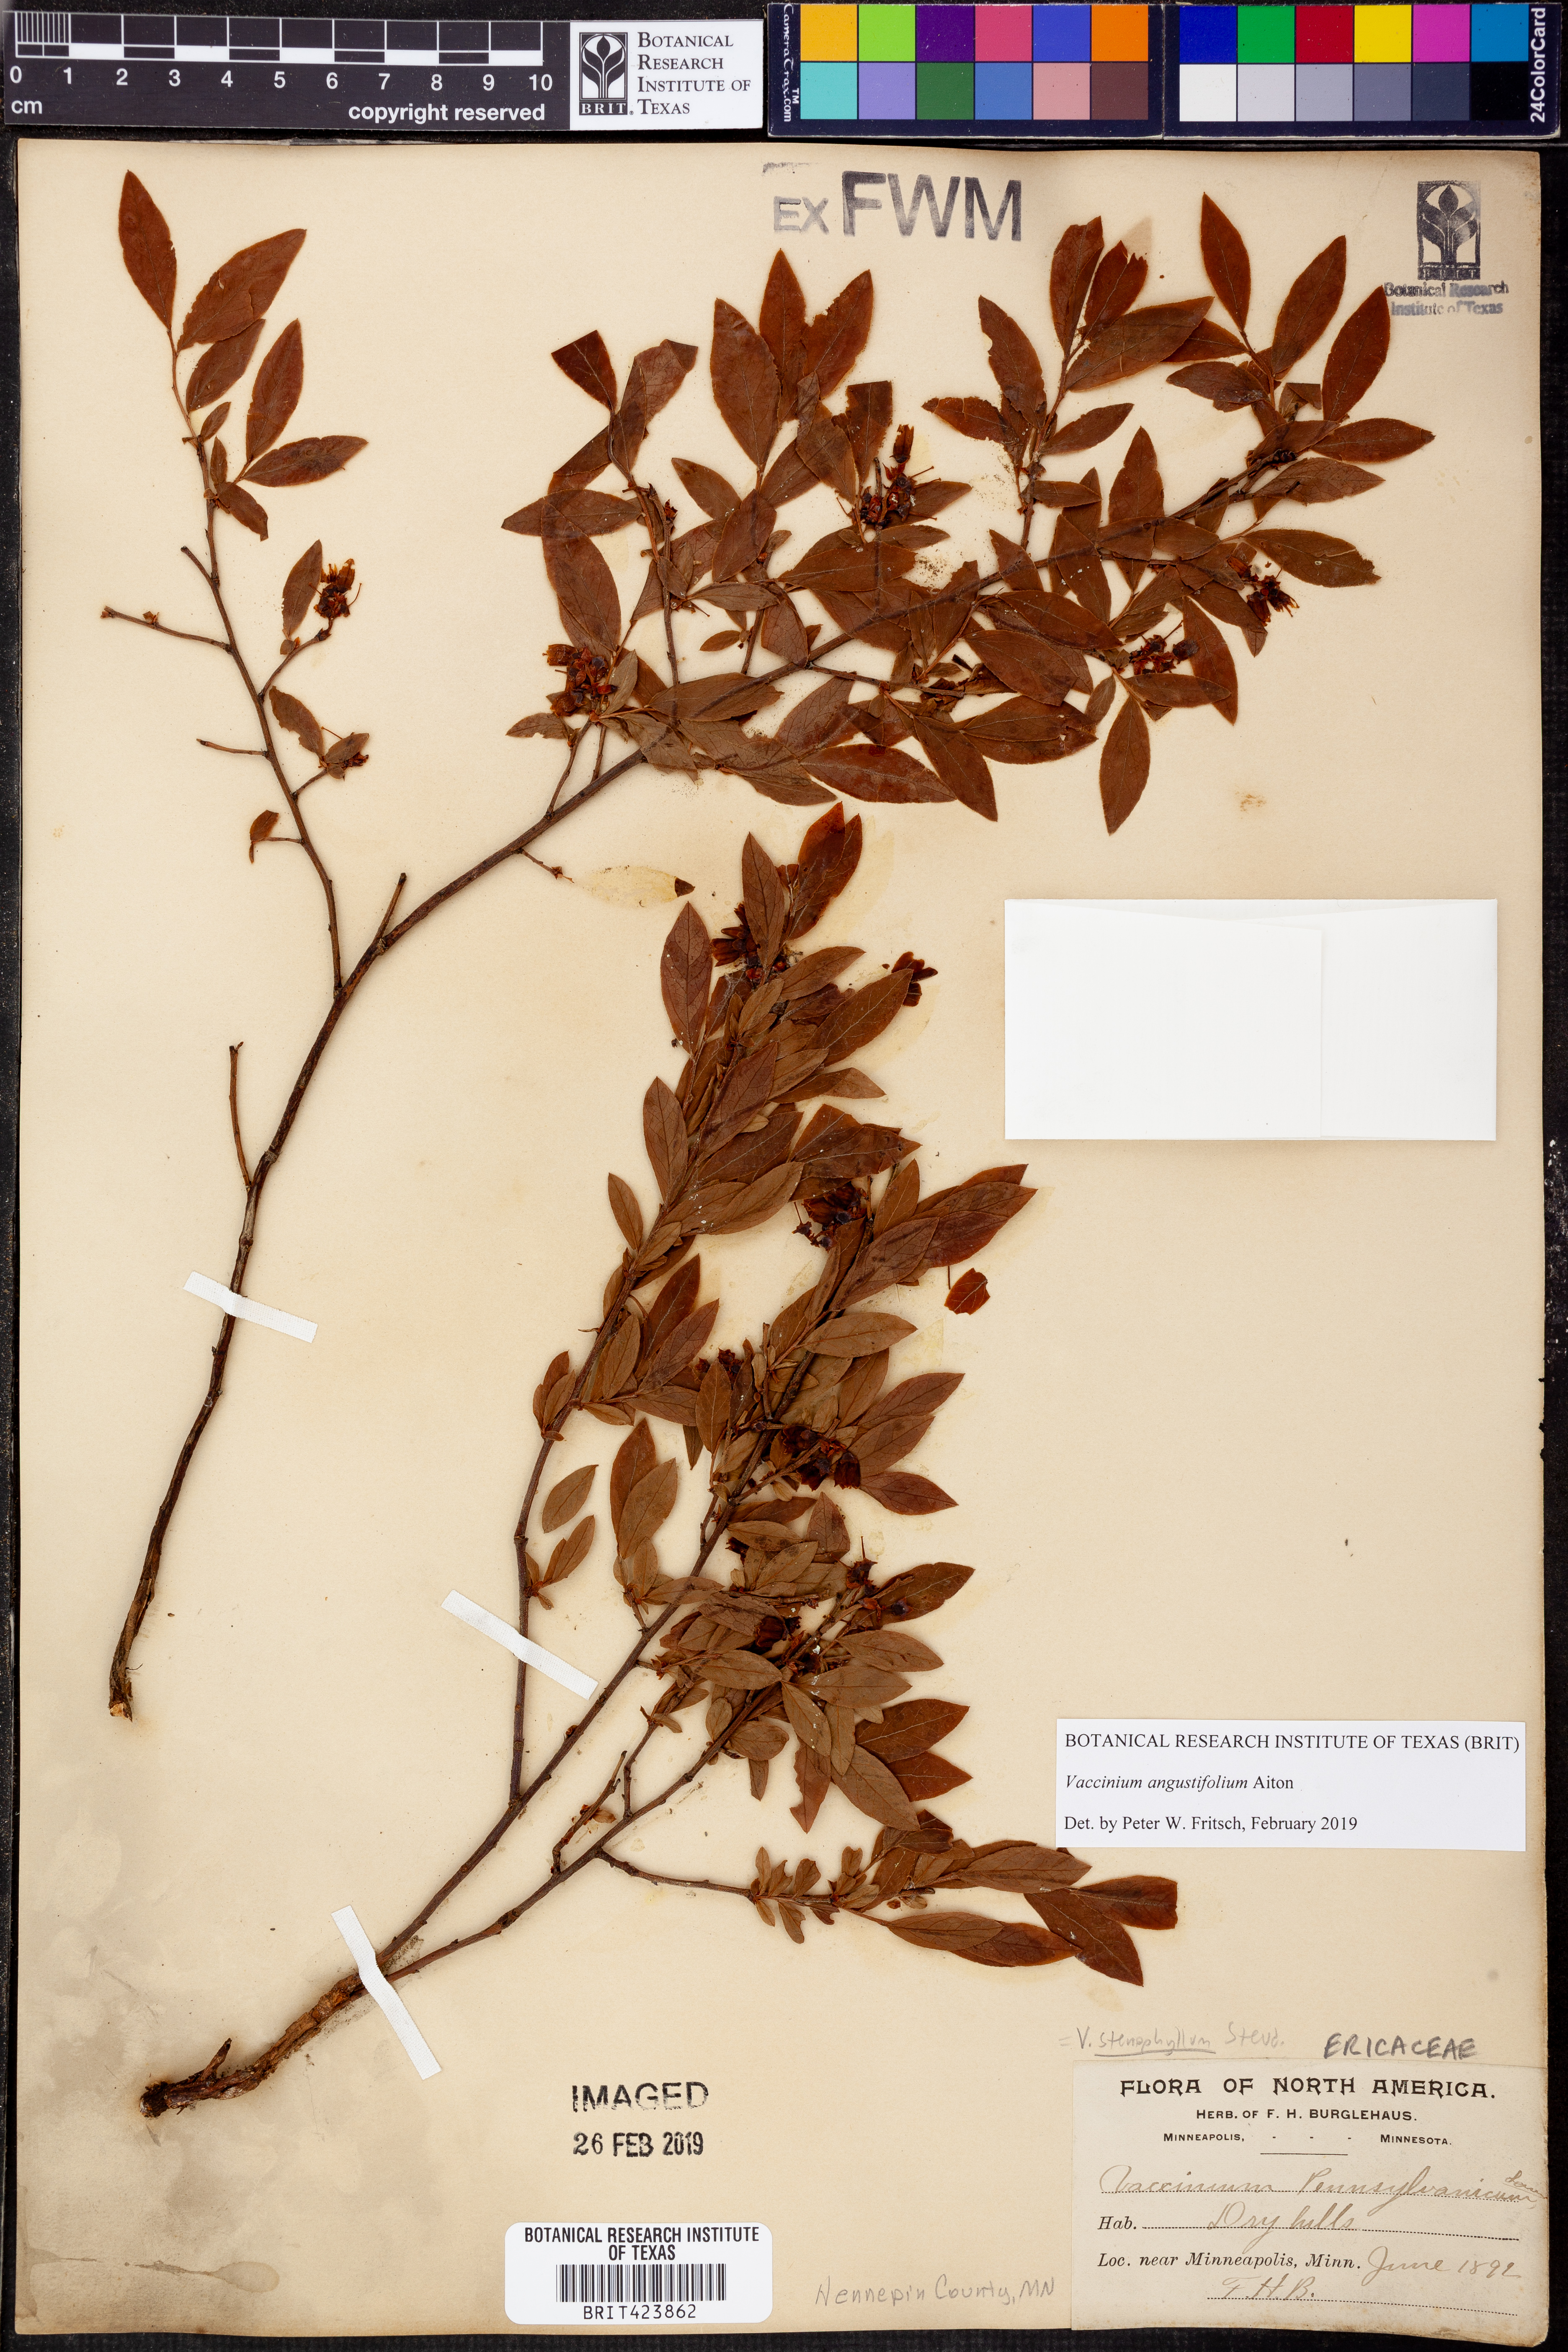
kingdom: Plantae
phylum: Tracheophyta
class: Magnoliopsida
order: Ericales
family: Ericaceae
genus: Vaccinium
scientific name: Vaccinium angustifolium
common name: Early lowbush blueberry
